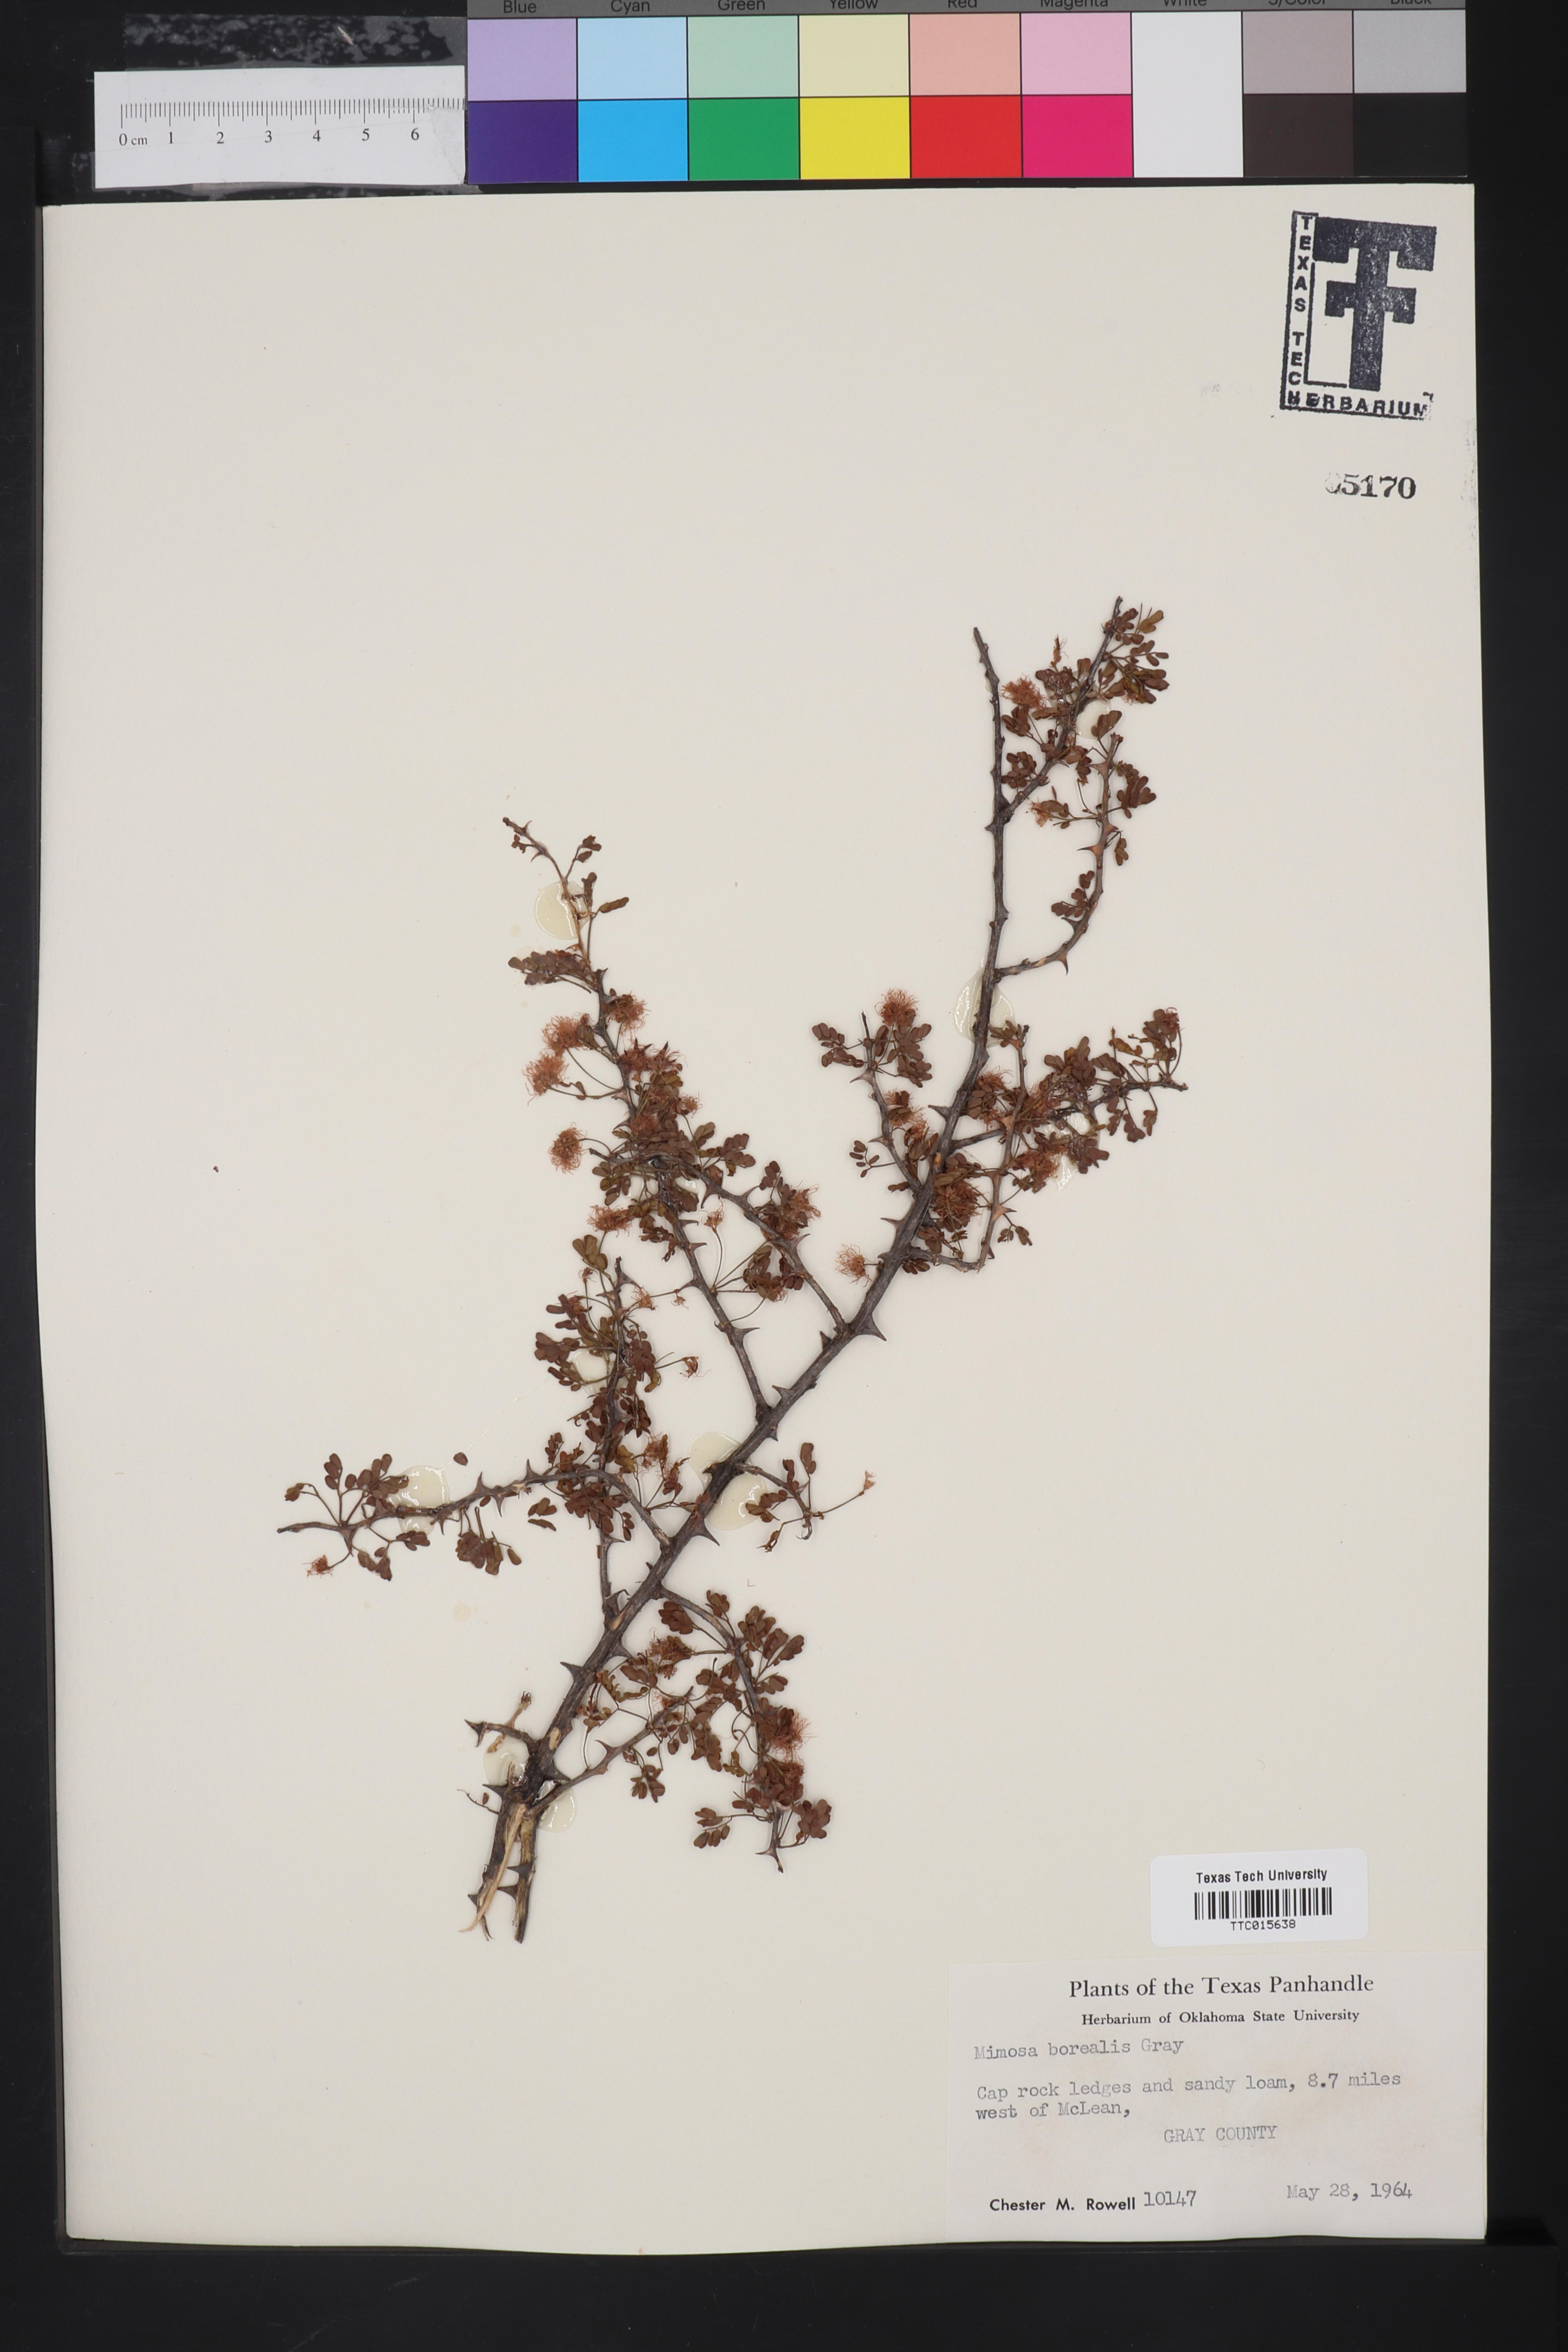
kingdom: Plantae
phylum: Tracheophyta
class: Magnoliopsida
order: Fabales
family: Fabaceae
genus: Mimosa
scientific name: Mimosa borealis
